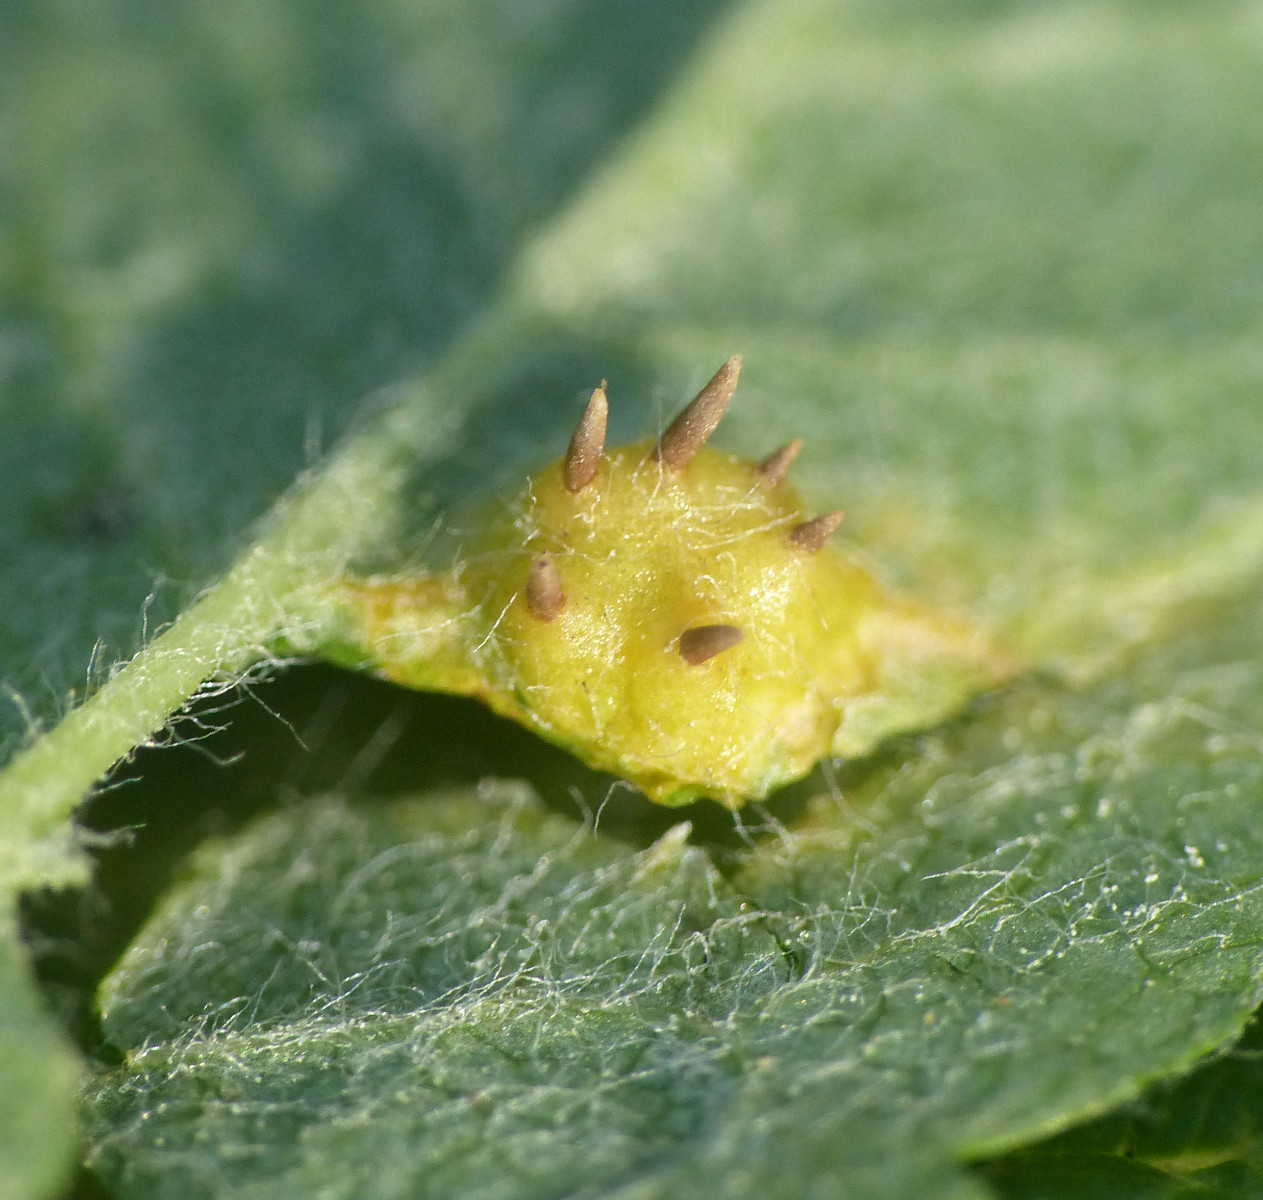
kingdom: Fungi
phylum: Basidiomycota
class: Pucciniomycetes
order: Pucciniales
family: Gymnosporangiaceae
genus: Gymnosporangium
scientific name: Gymnosporangium cornutum
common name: rønnehorn-bævrerust
